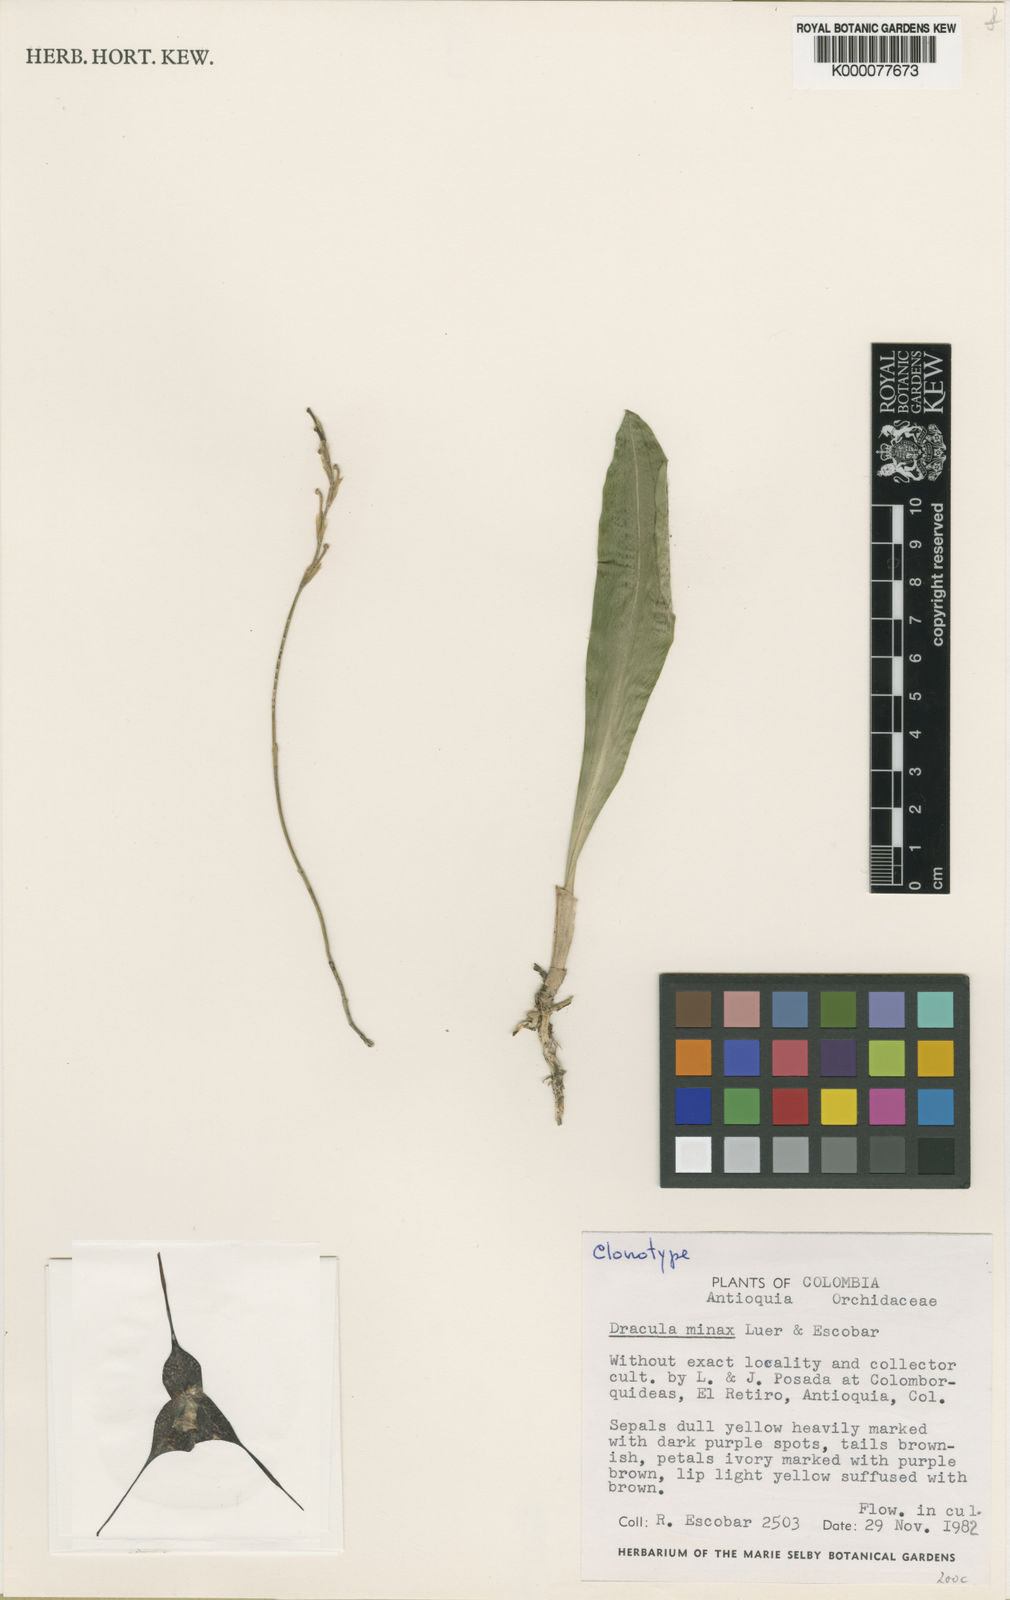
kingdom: Plantae
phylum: Tracheophyta
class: Liliopsida
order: Asparagales
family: Orchidaceae
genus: Dracula
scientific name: Dracula minax
